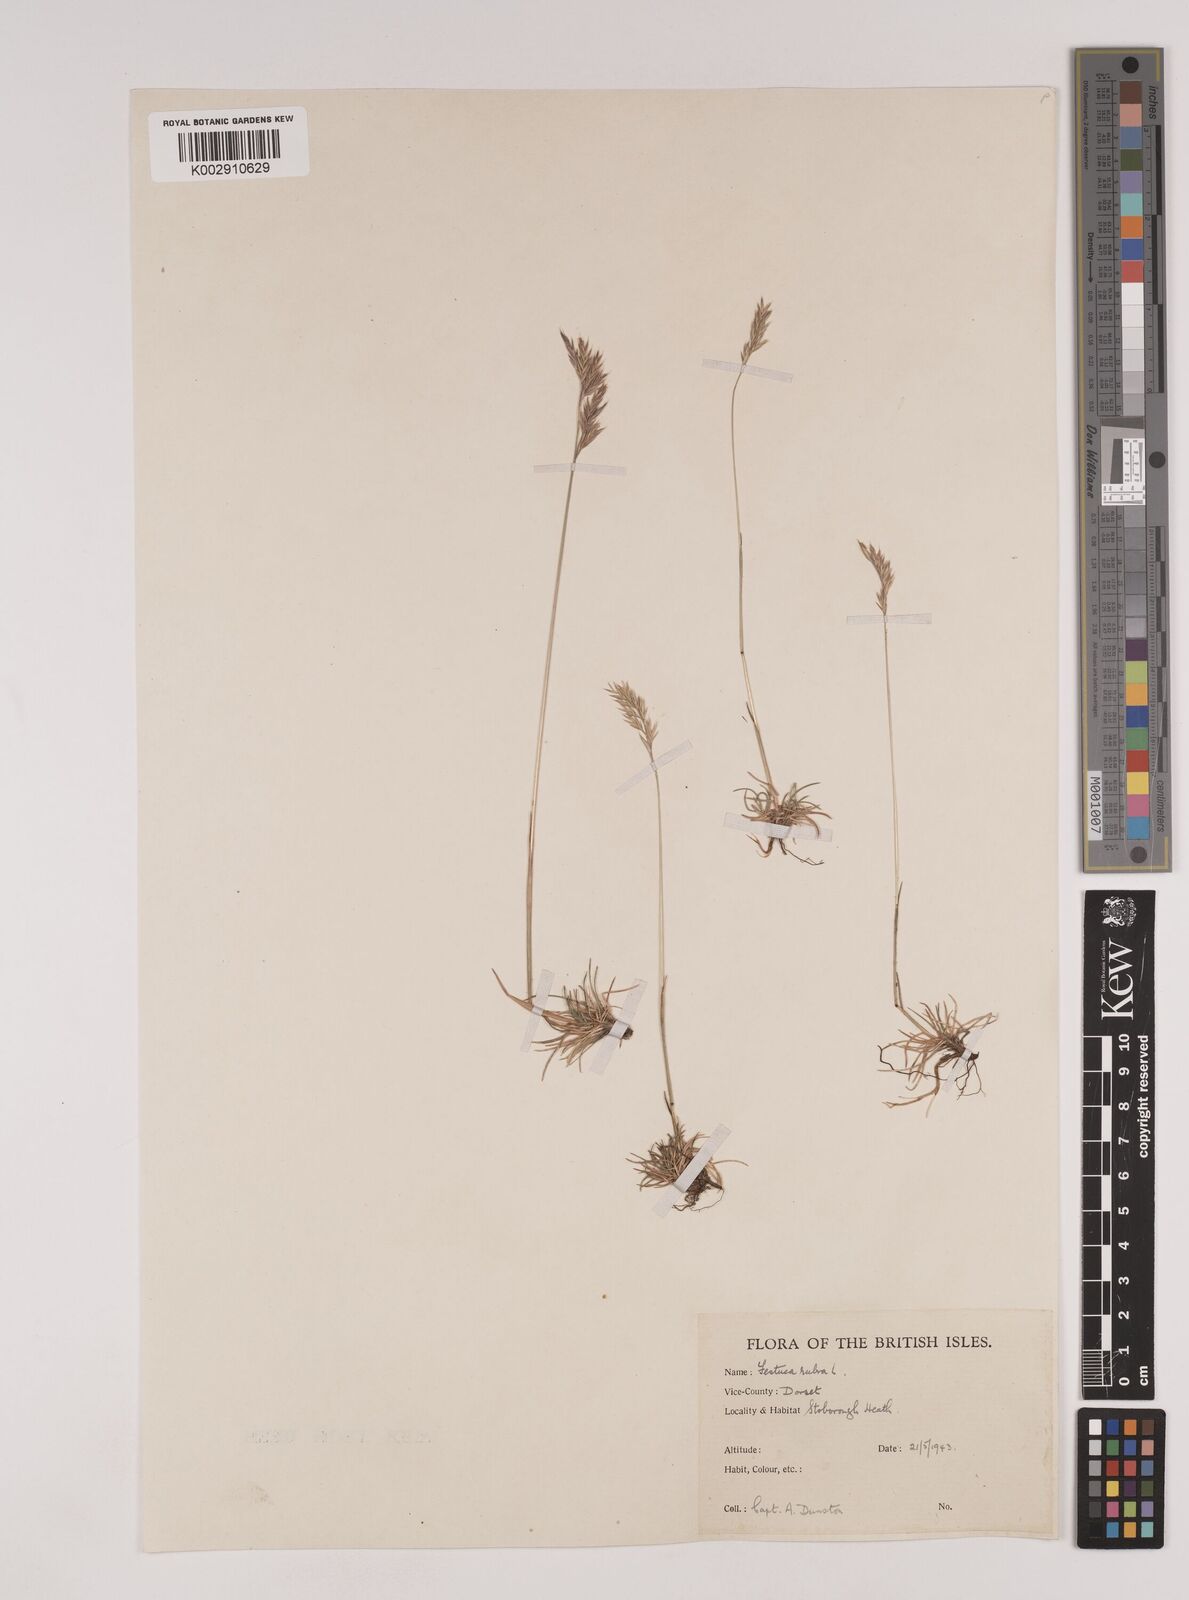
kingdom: Plantae
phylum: Tracheophyta
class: Liliopsida
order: Poales
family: Poaceae
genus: Festuca
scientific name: Festuca rubra
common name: Red fescue
